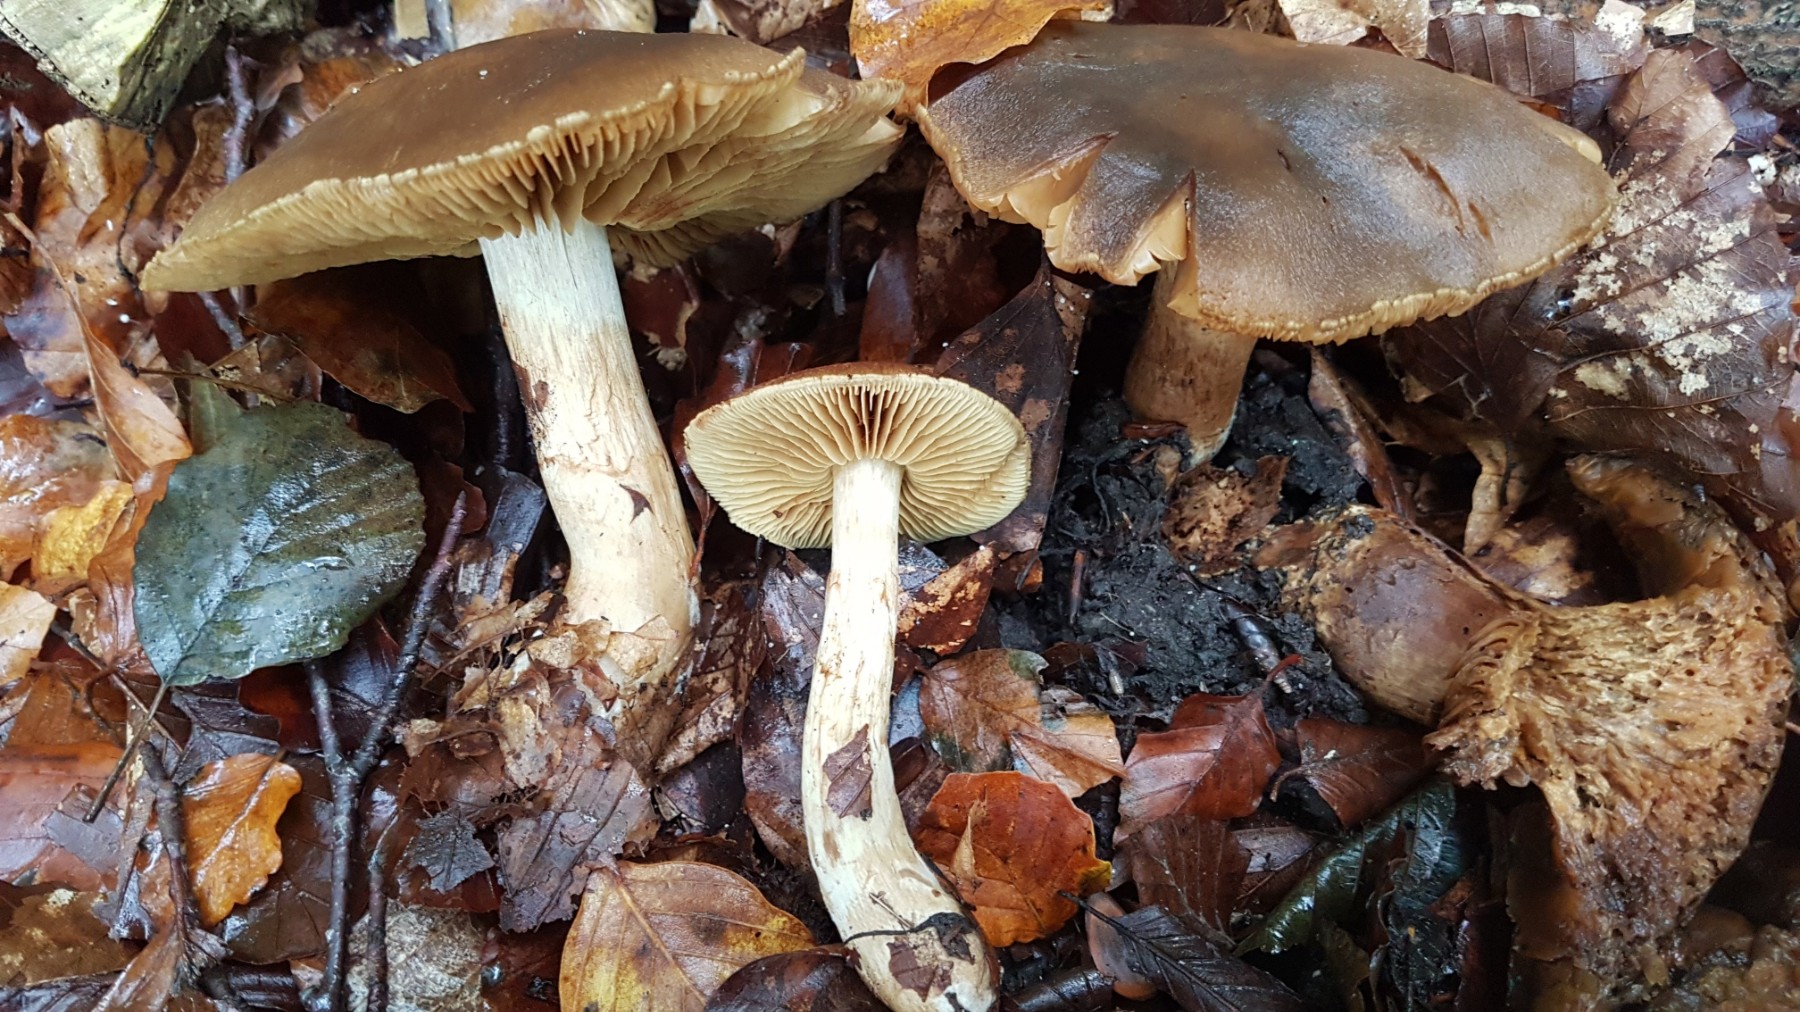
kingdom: Fungi
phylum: Basidiomycota
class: Agaricomycetes
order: Agaricales
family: Cortinariaceae
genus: Cortinarius
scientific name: Cortinarius venetus
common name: olivengrøn slørhat
